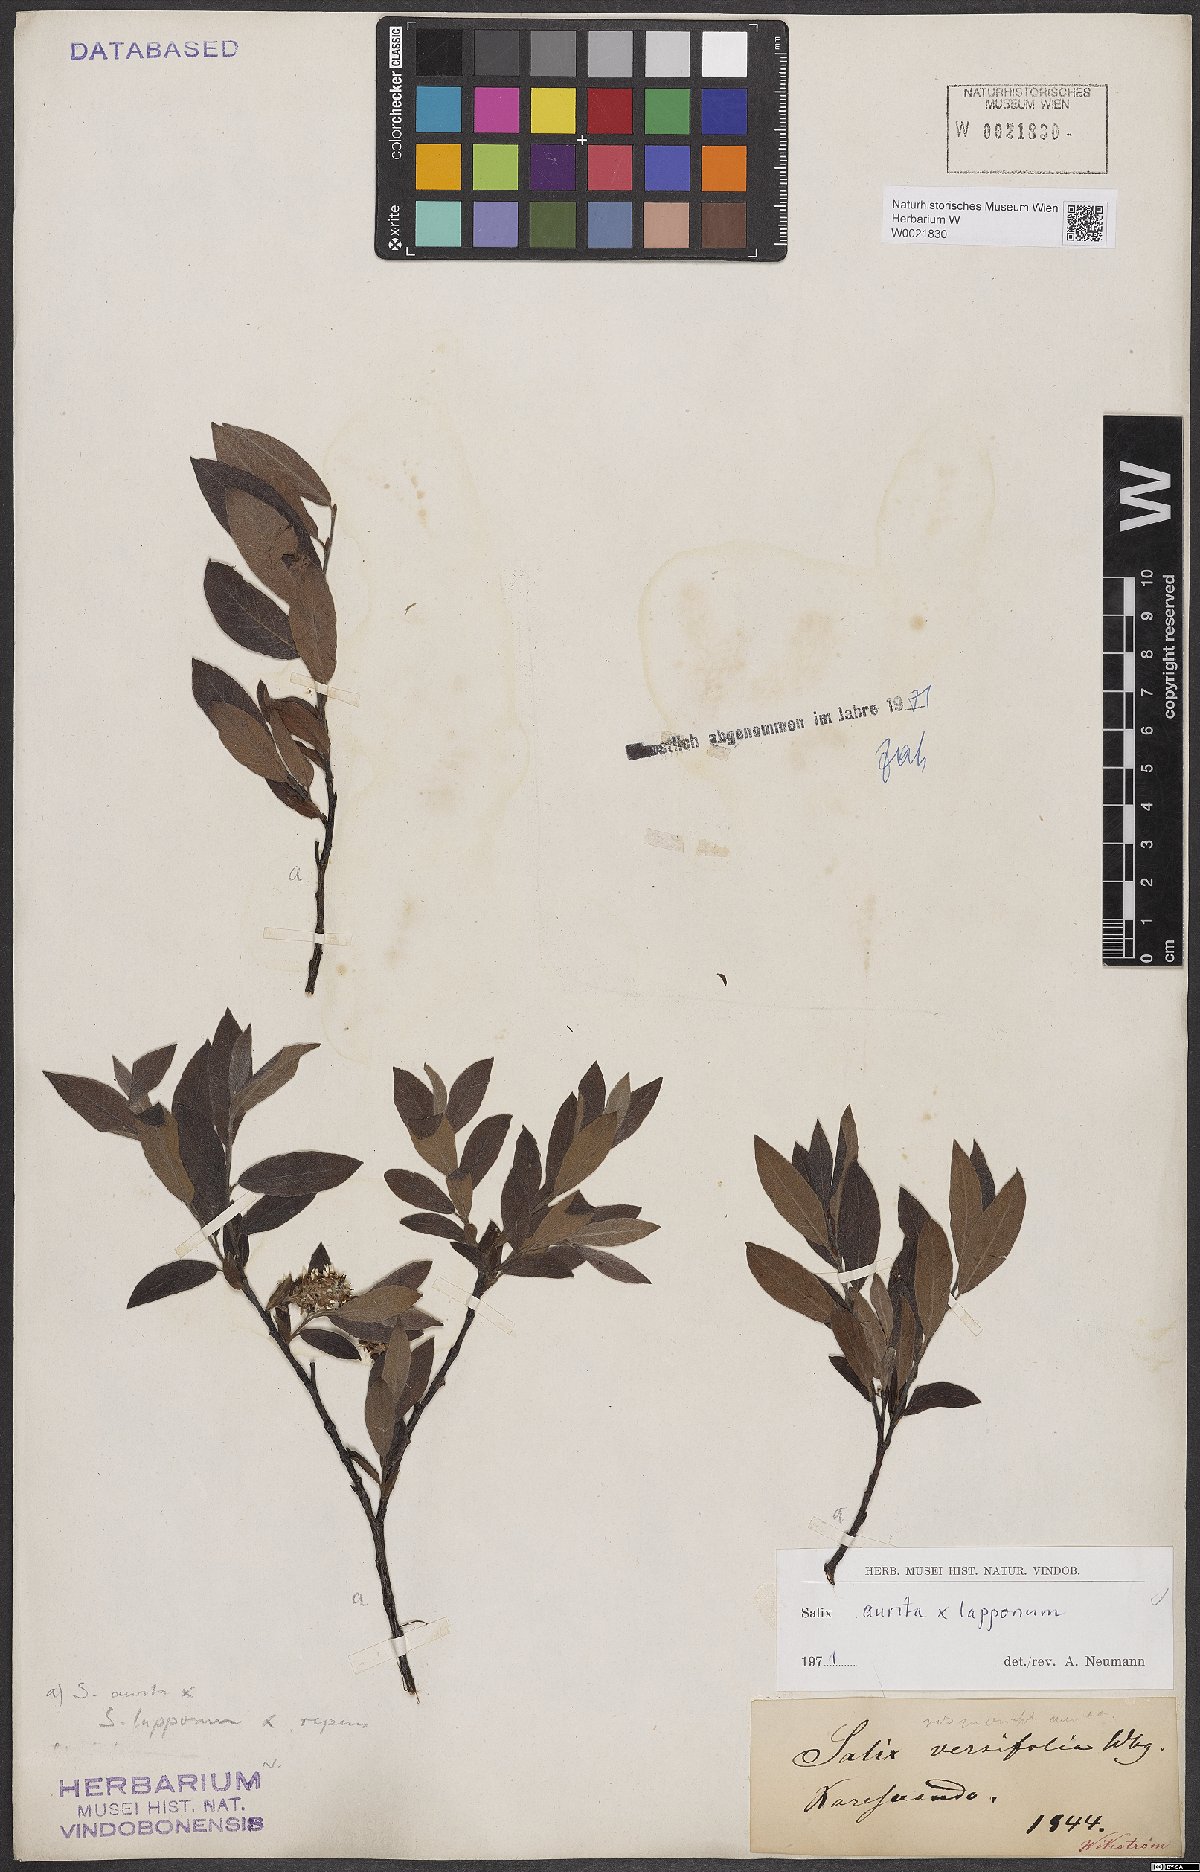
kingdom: Plantae
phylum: Tracheophyta
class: Magnoliopsida
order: Malpighiales
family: Salicaceae
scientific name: Salicaceae
